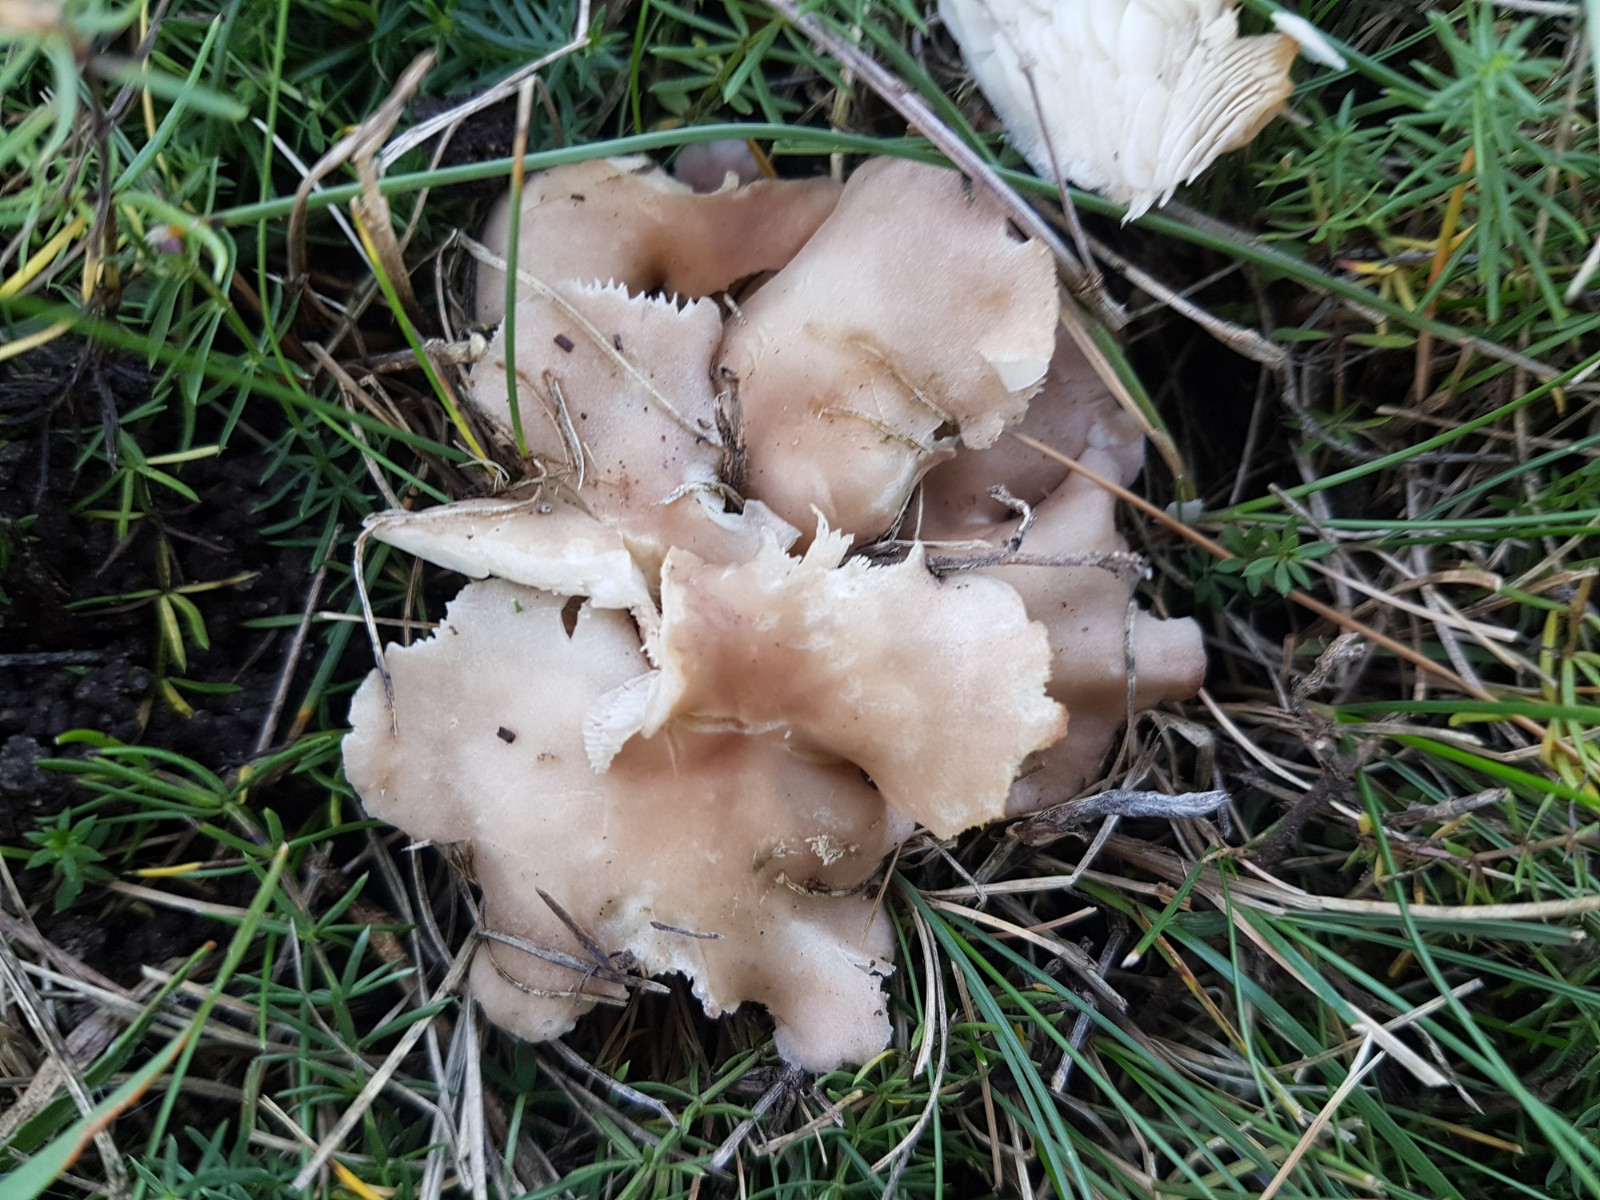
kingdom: Fungi
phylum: Basidiomycota
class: Agaricomycetes
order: Agaricales
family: Lyophyllaceae
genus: Calocybe
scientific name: Calocybe carnea
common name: rosa fagerhat
